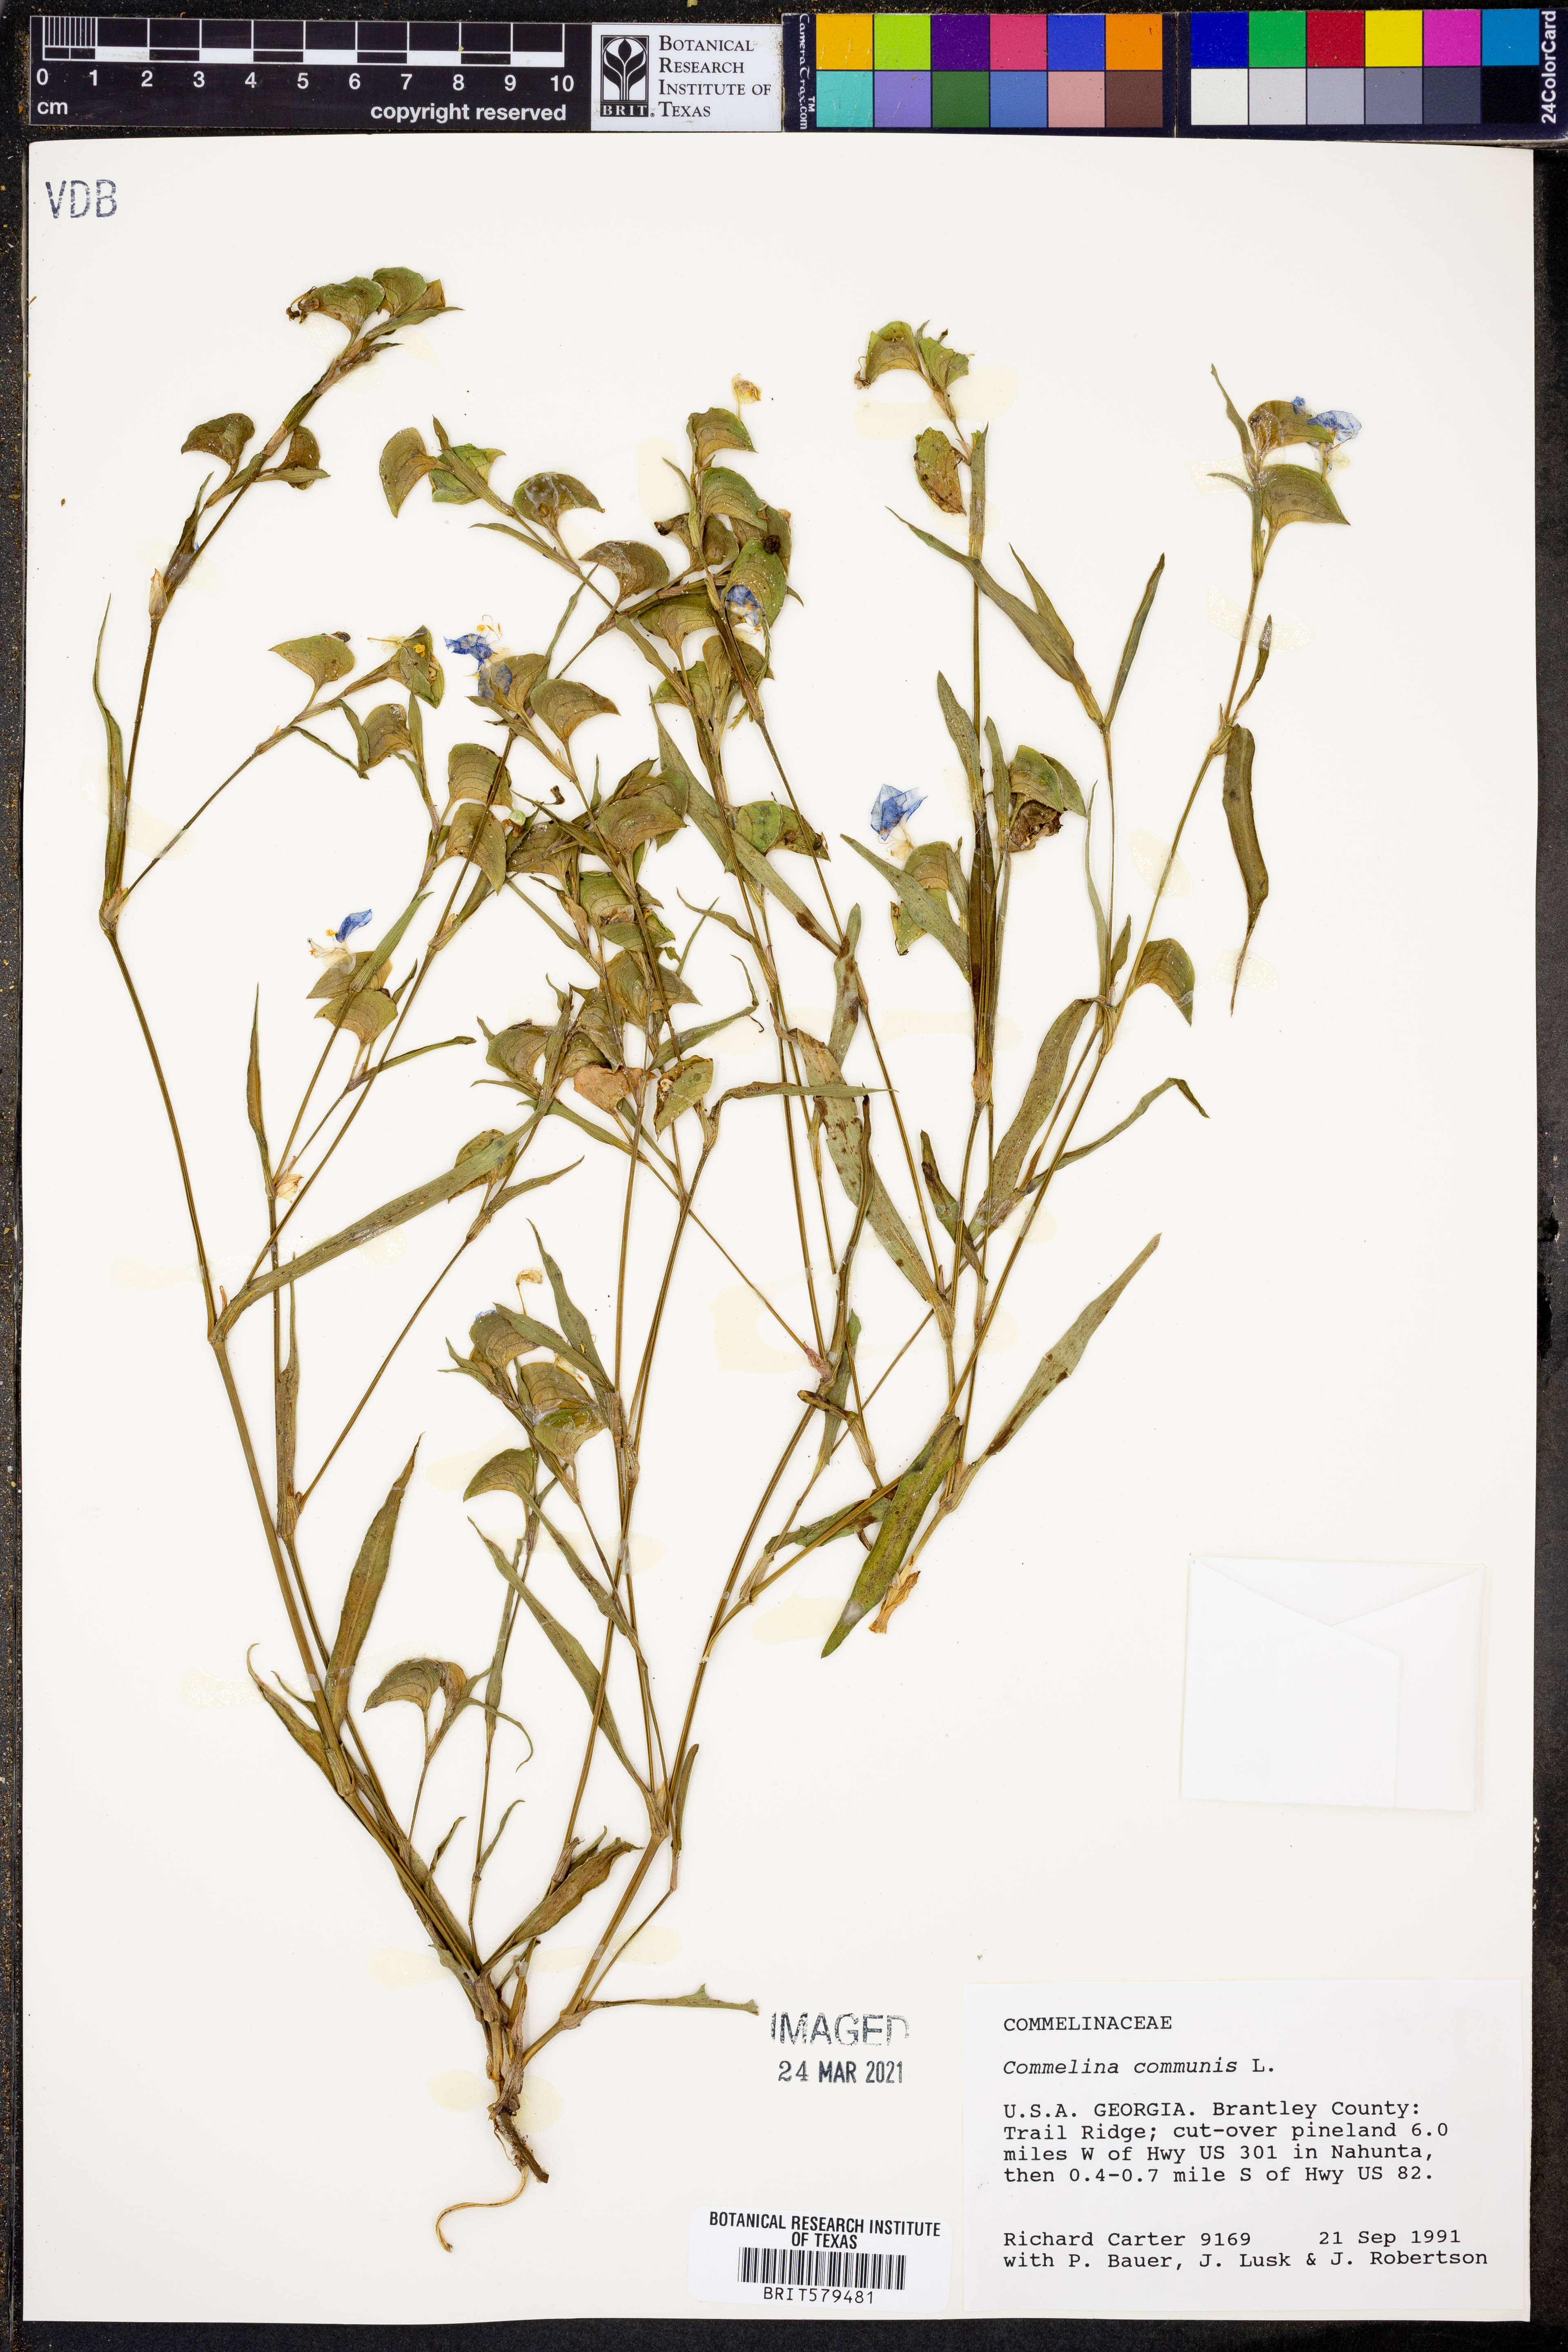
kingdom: Plantae
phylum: Tracheophyta
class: Liliopsida
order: Commelinales
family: Commelinaceae
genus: Commelina
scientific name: Commelina communis
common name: Asiatic dayflower
